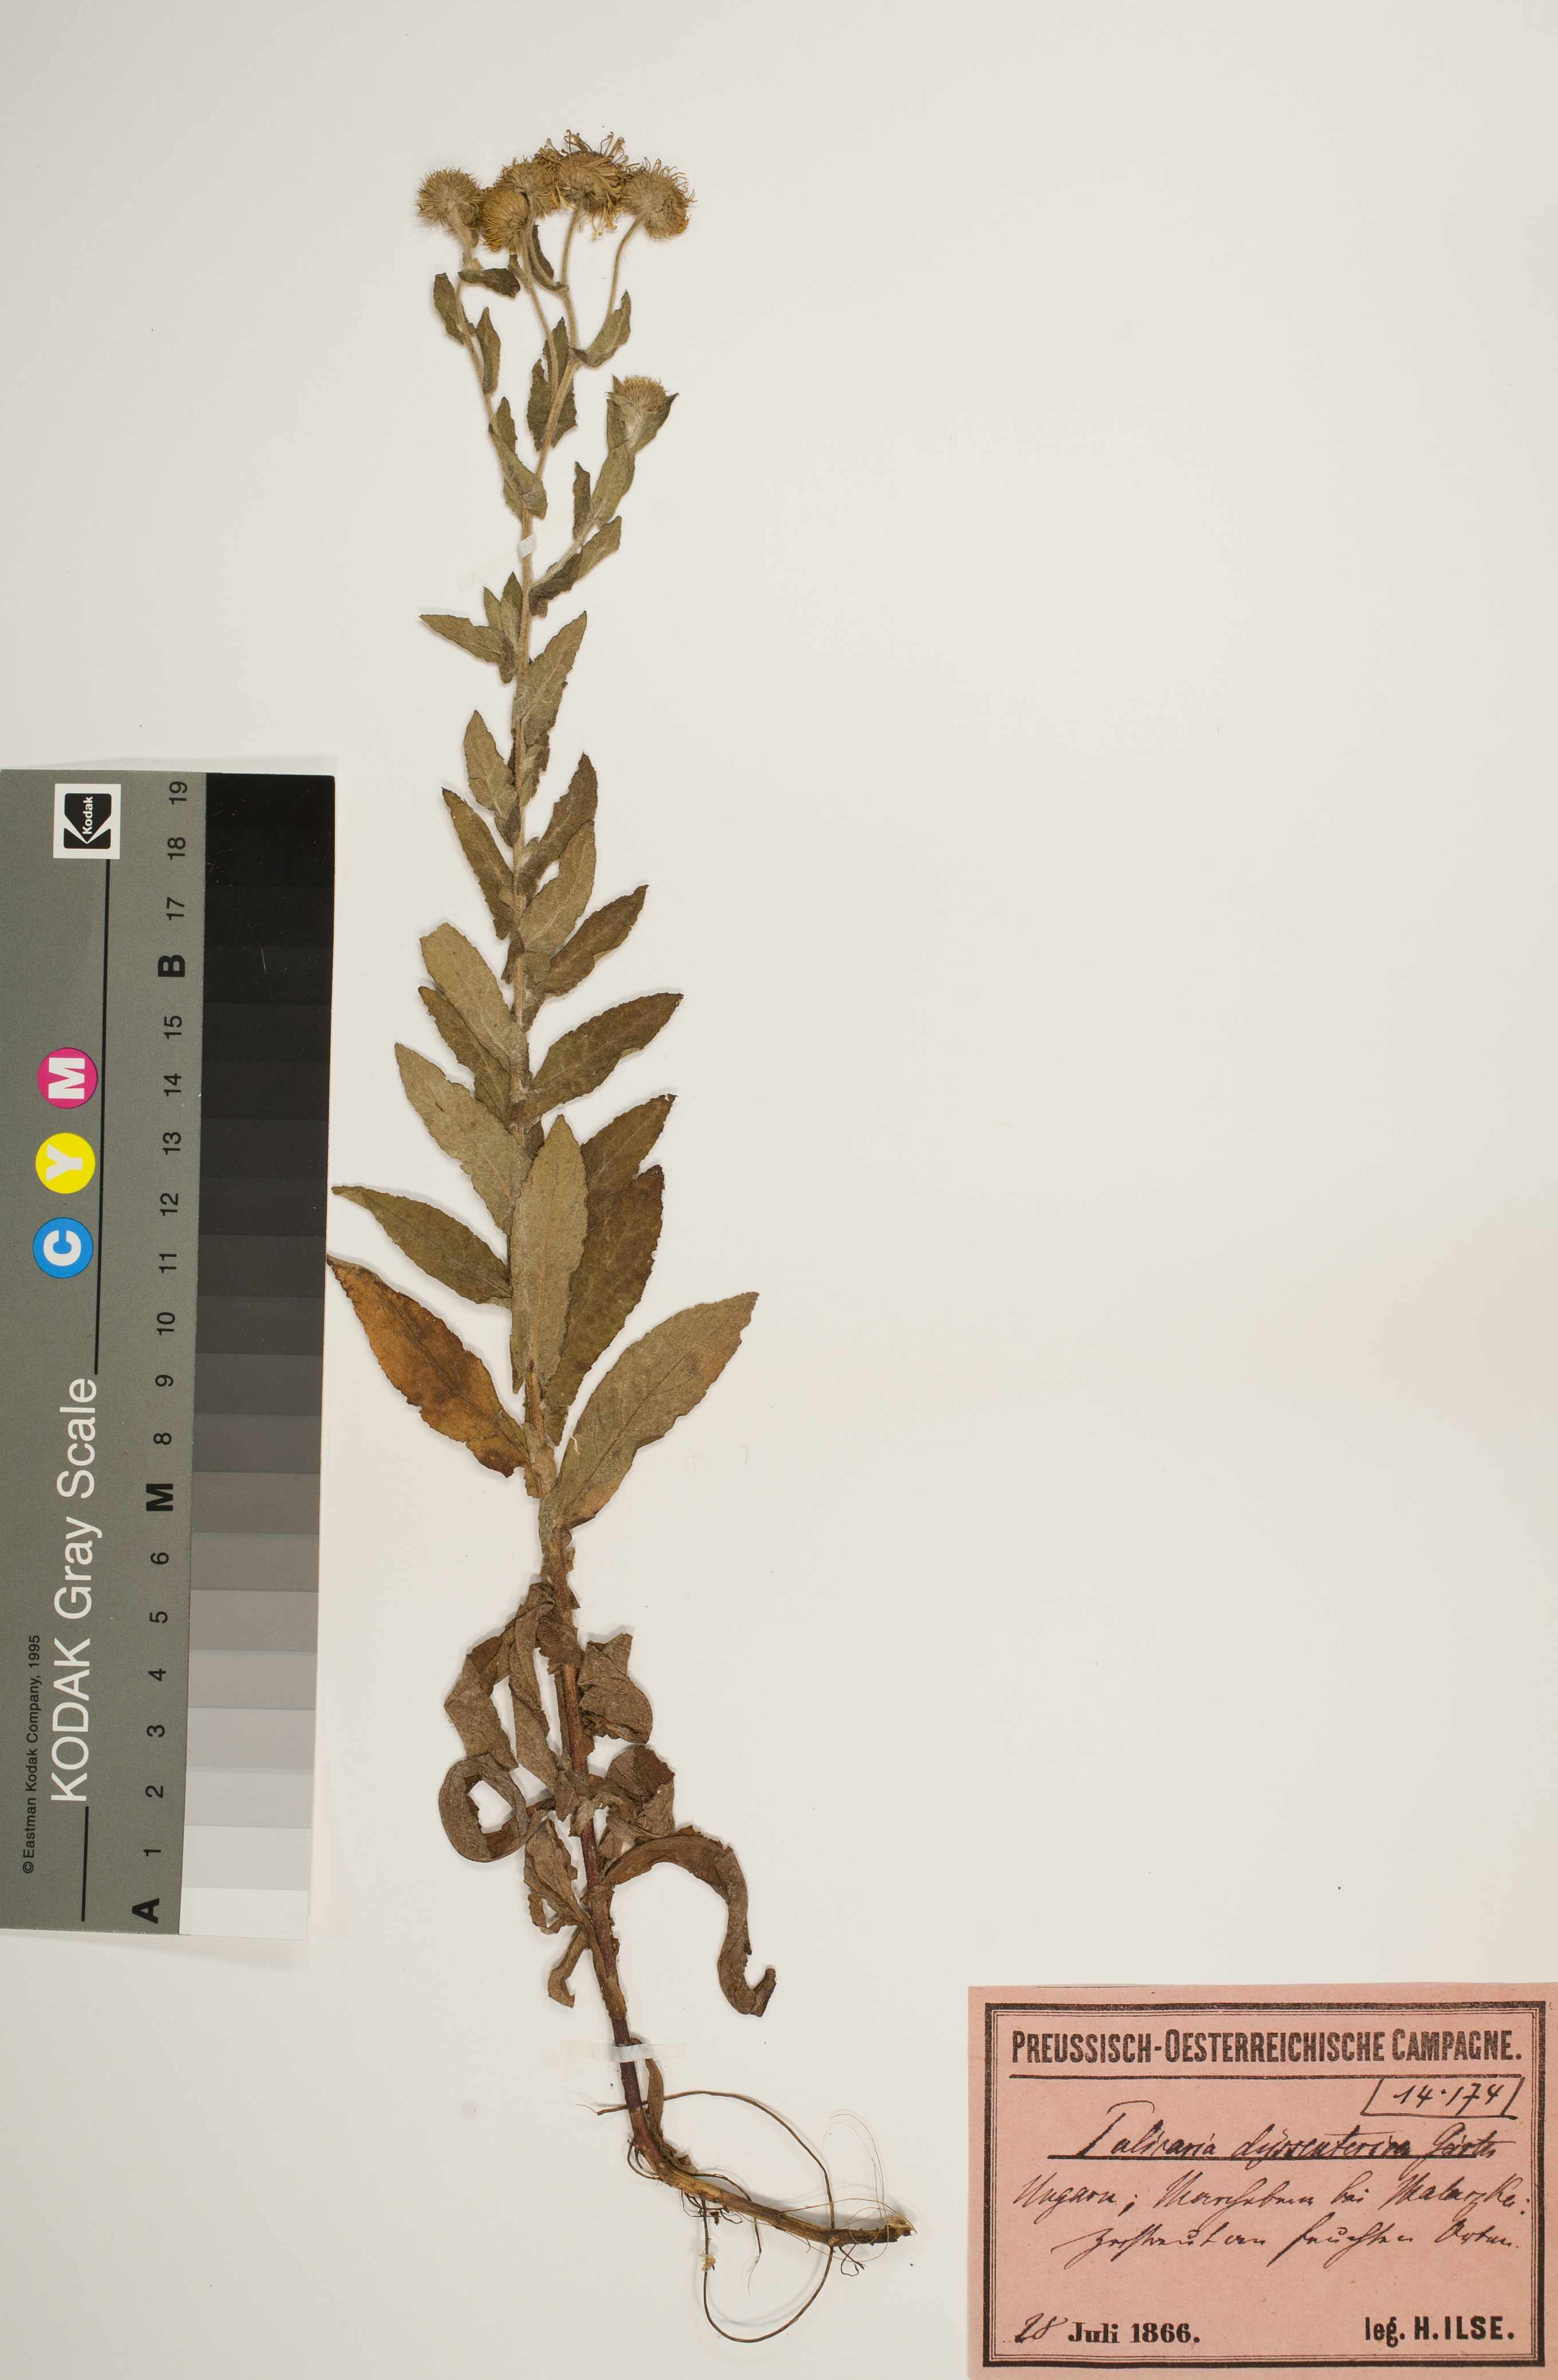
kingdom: Plantae
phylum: Tracheophyta
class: Magnoliopsida
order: Asterales
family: Asteraceae
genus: Pulicaria
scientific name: Pulicaria dysenterica
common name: Common fleabane
